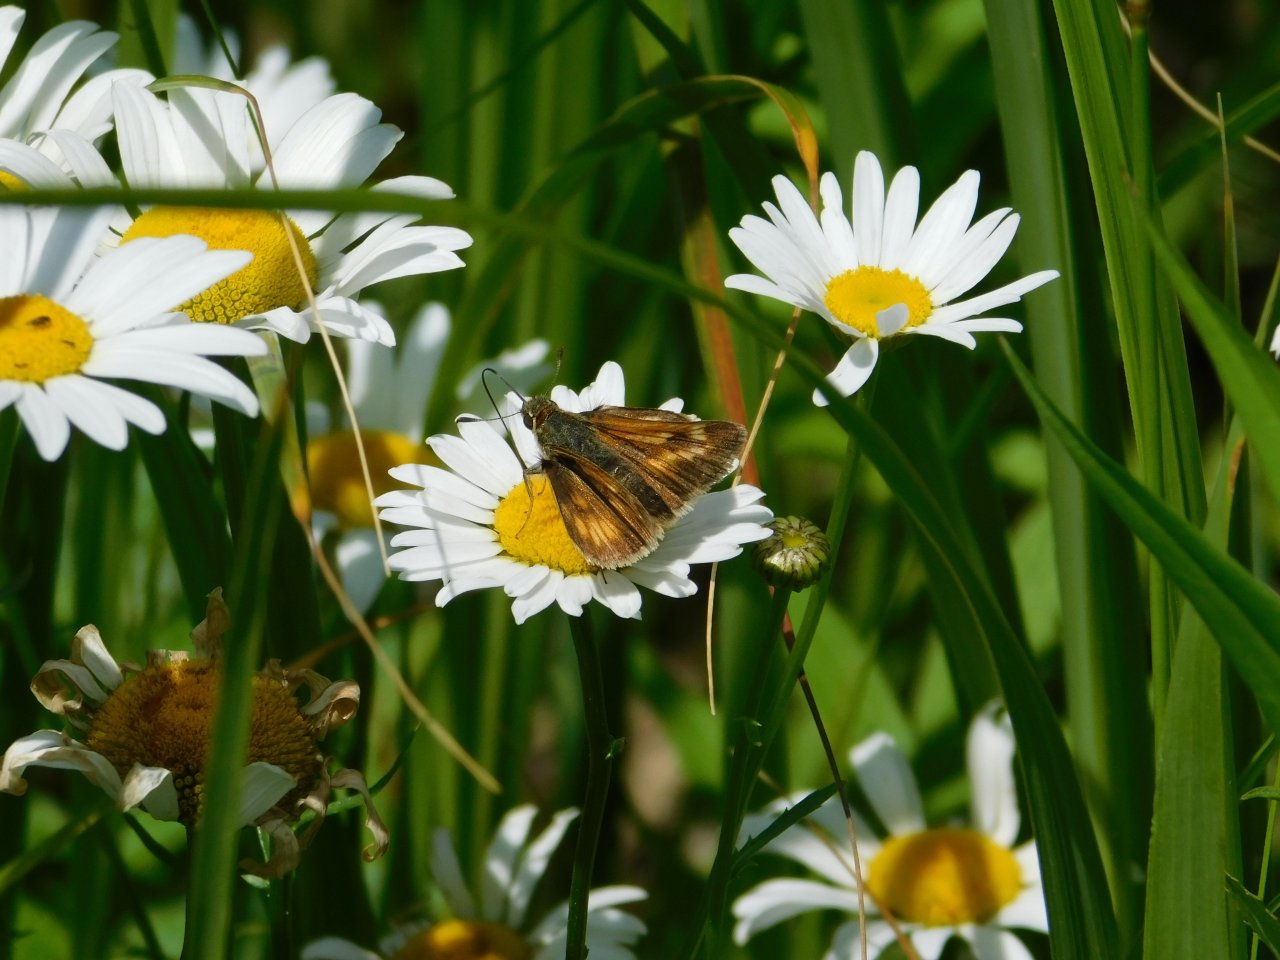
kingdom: Animalia
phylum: Arthropoda
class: Insecta
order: Lepidoptera
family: Hesperiidae
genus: Polites
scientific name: Polites coras
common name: Peck's Skipper
